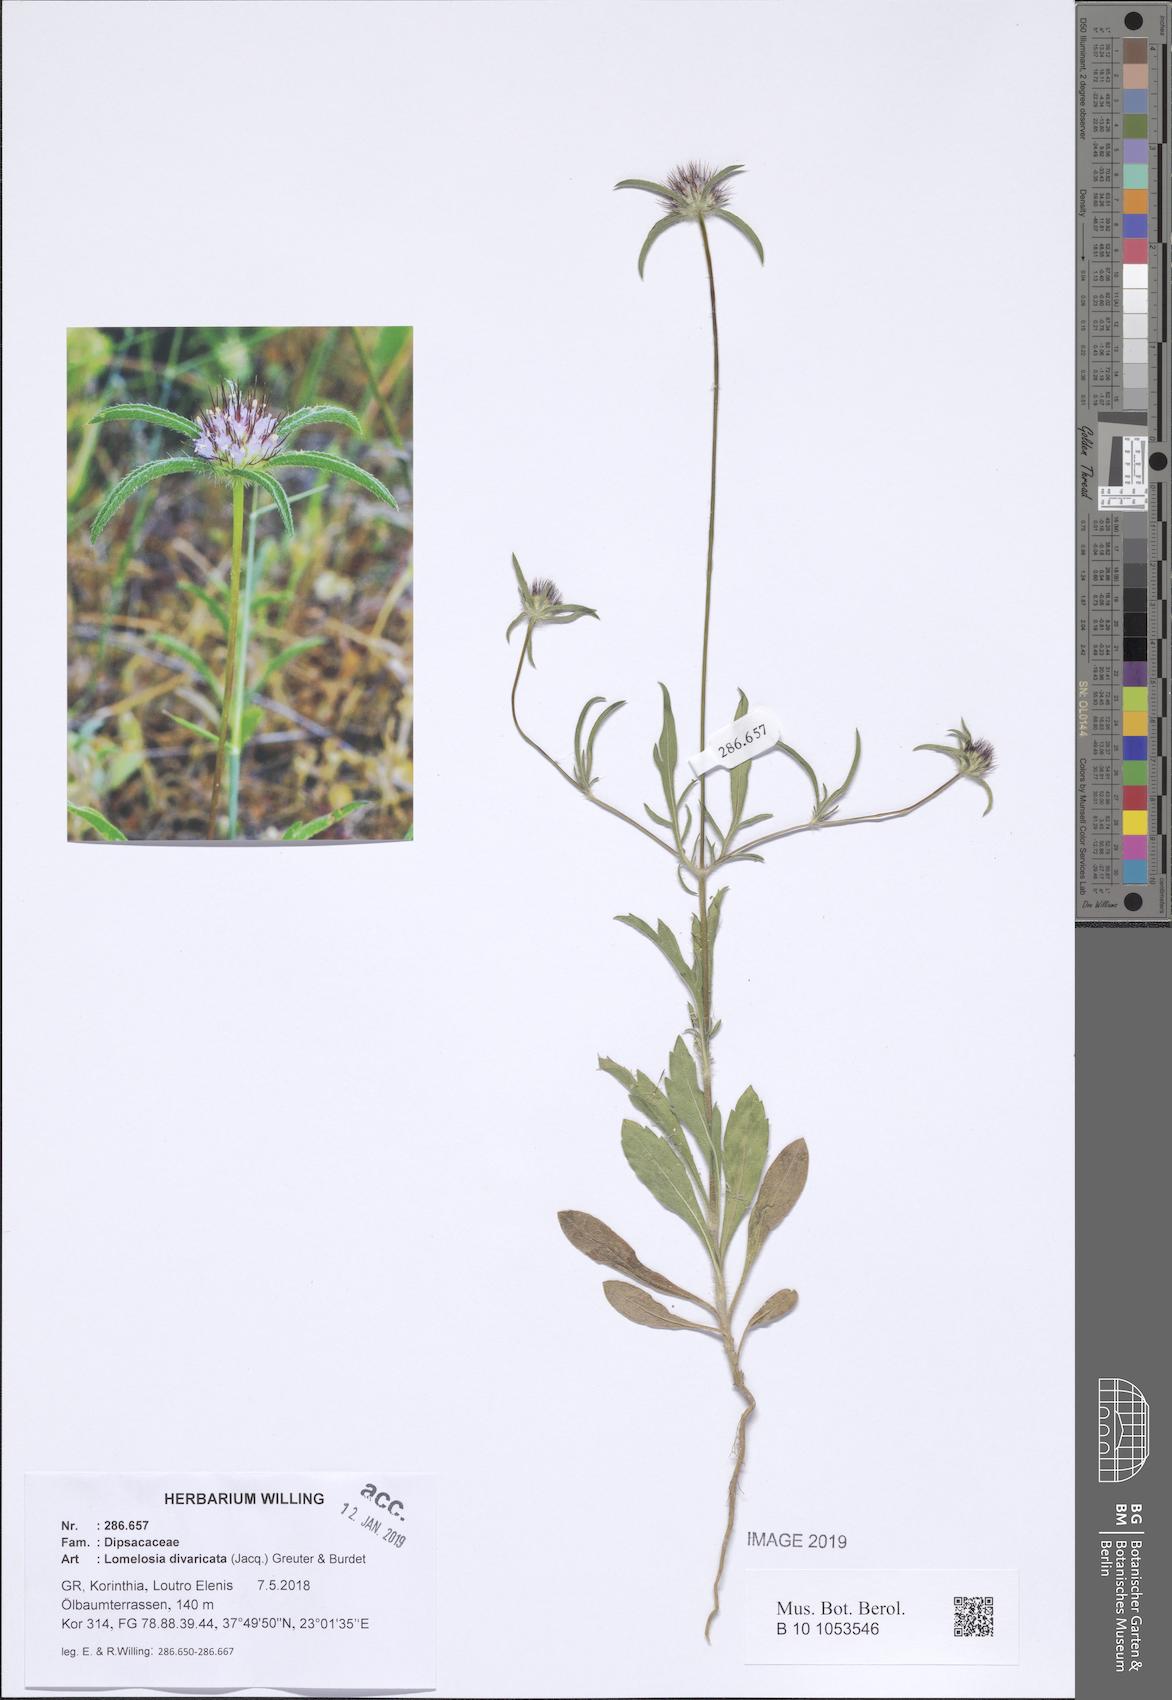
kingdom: Plantae
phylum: Tracheophyta
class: Magnoliopsida
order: Dipsacales
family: Caprifoliaceae
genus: Lomelosia
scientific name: Lomelosia divaricata
